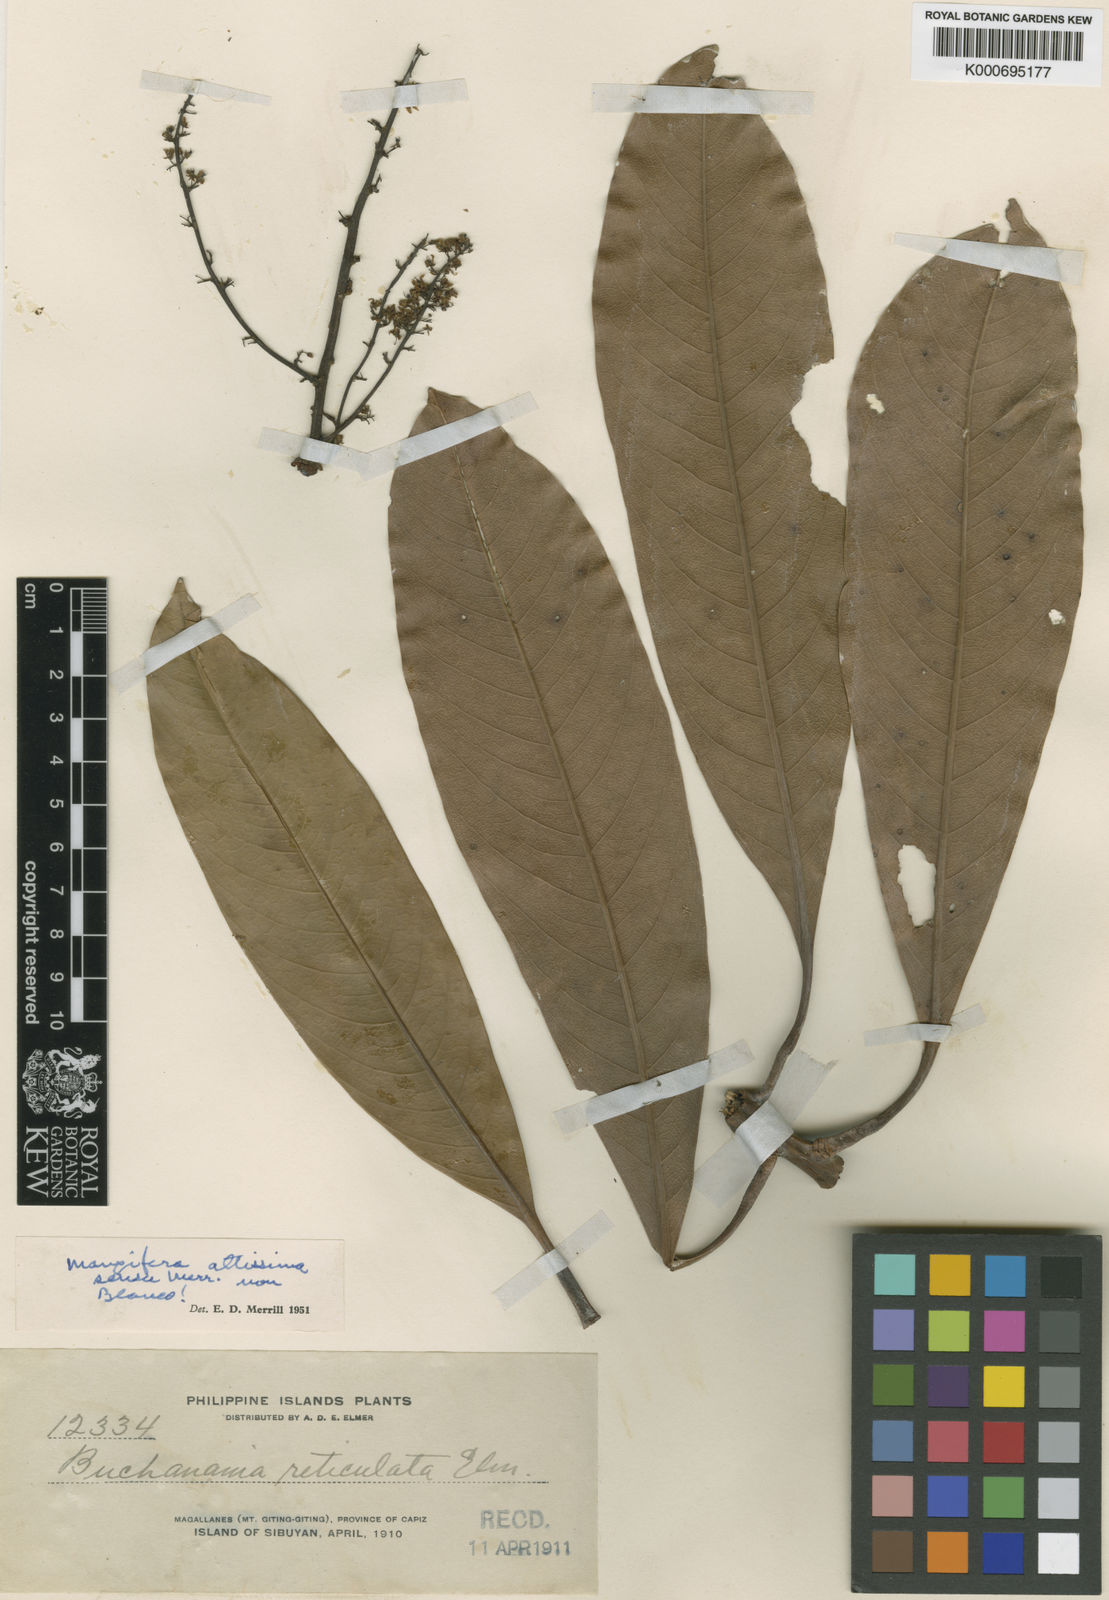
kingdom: Plantae
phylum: Tracheophyta
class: Magnoliopsida
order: Sapindales
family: Anacardiaceae
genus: Mangifera
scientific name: Mangifera altissima
